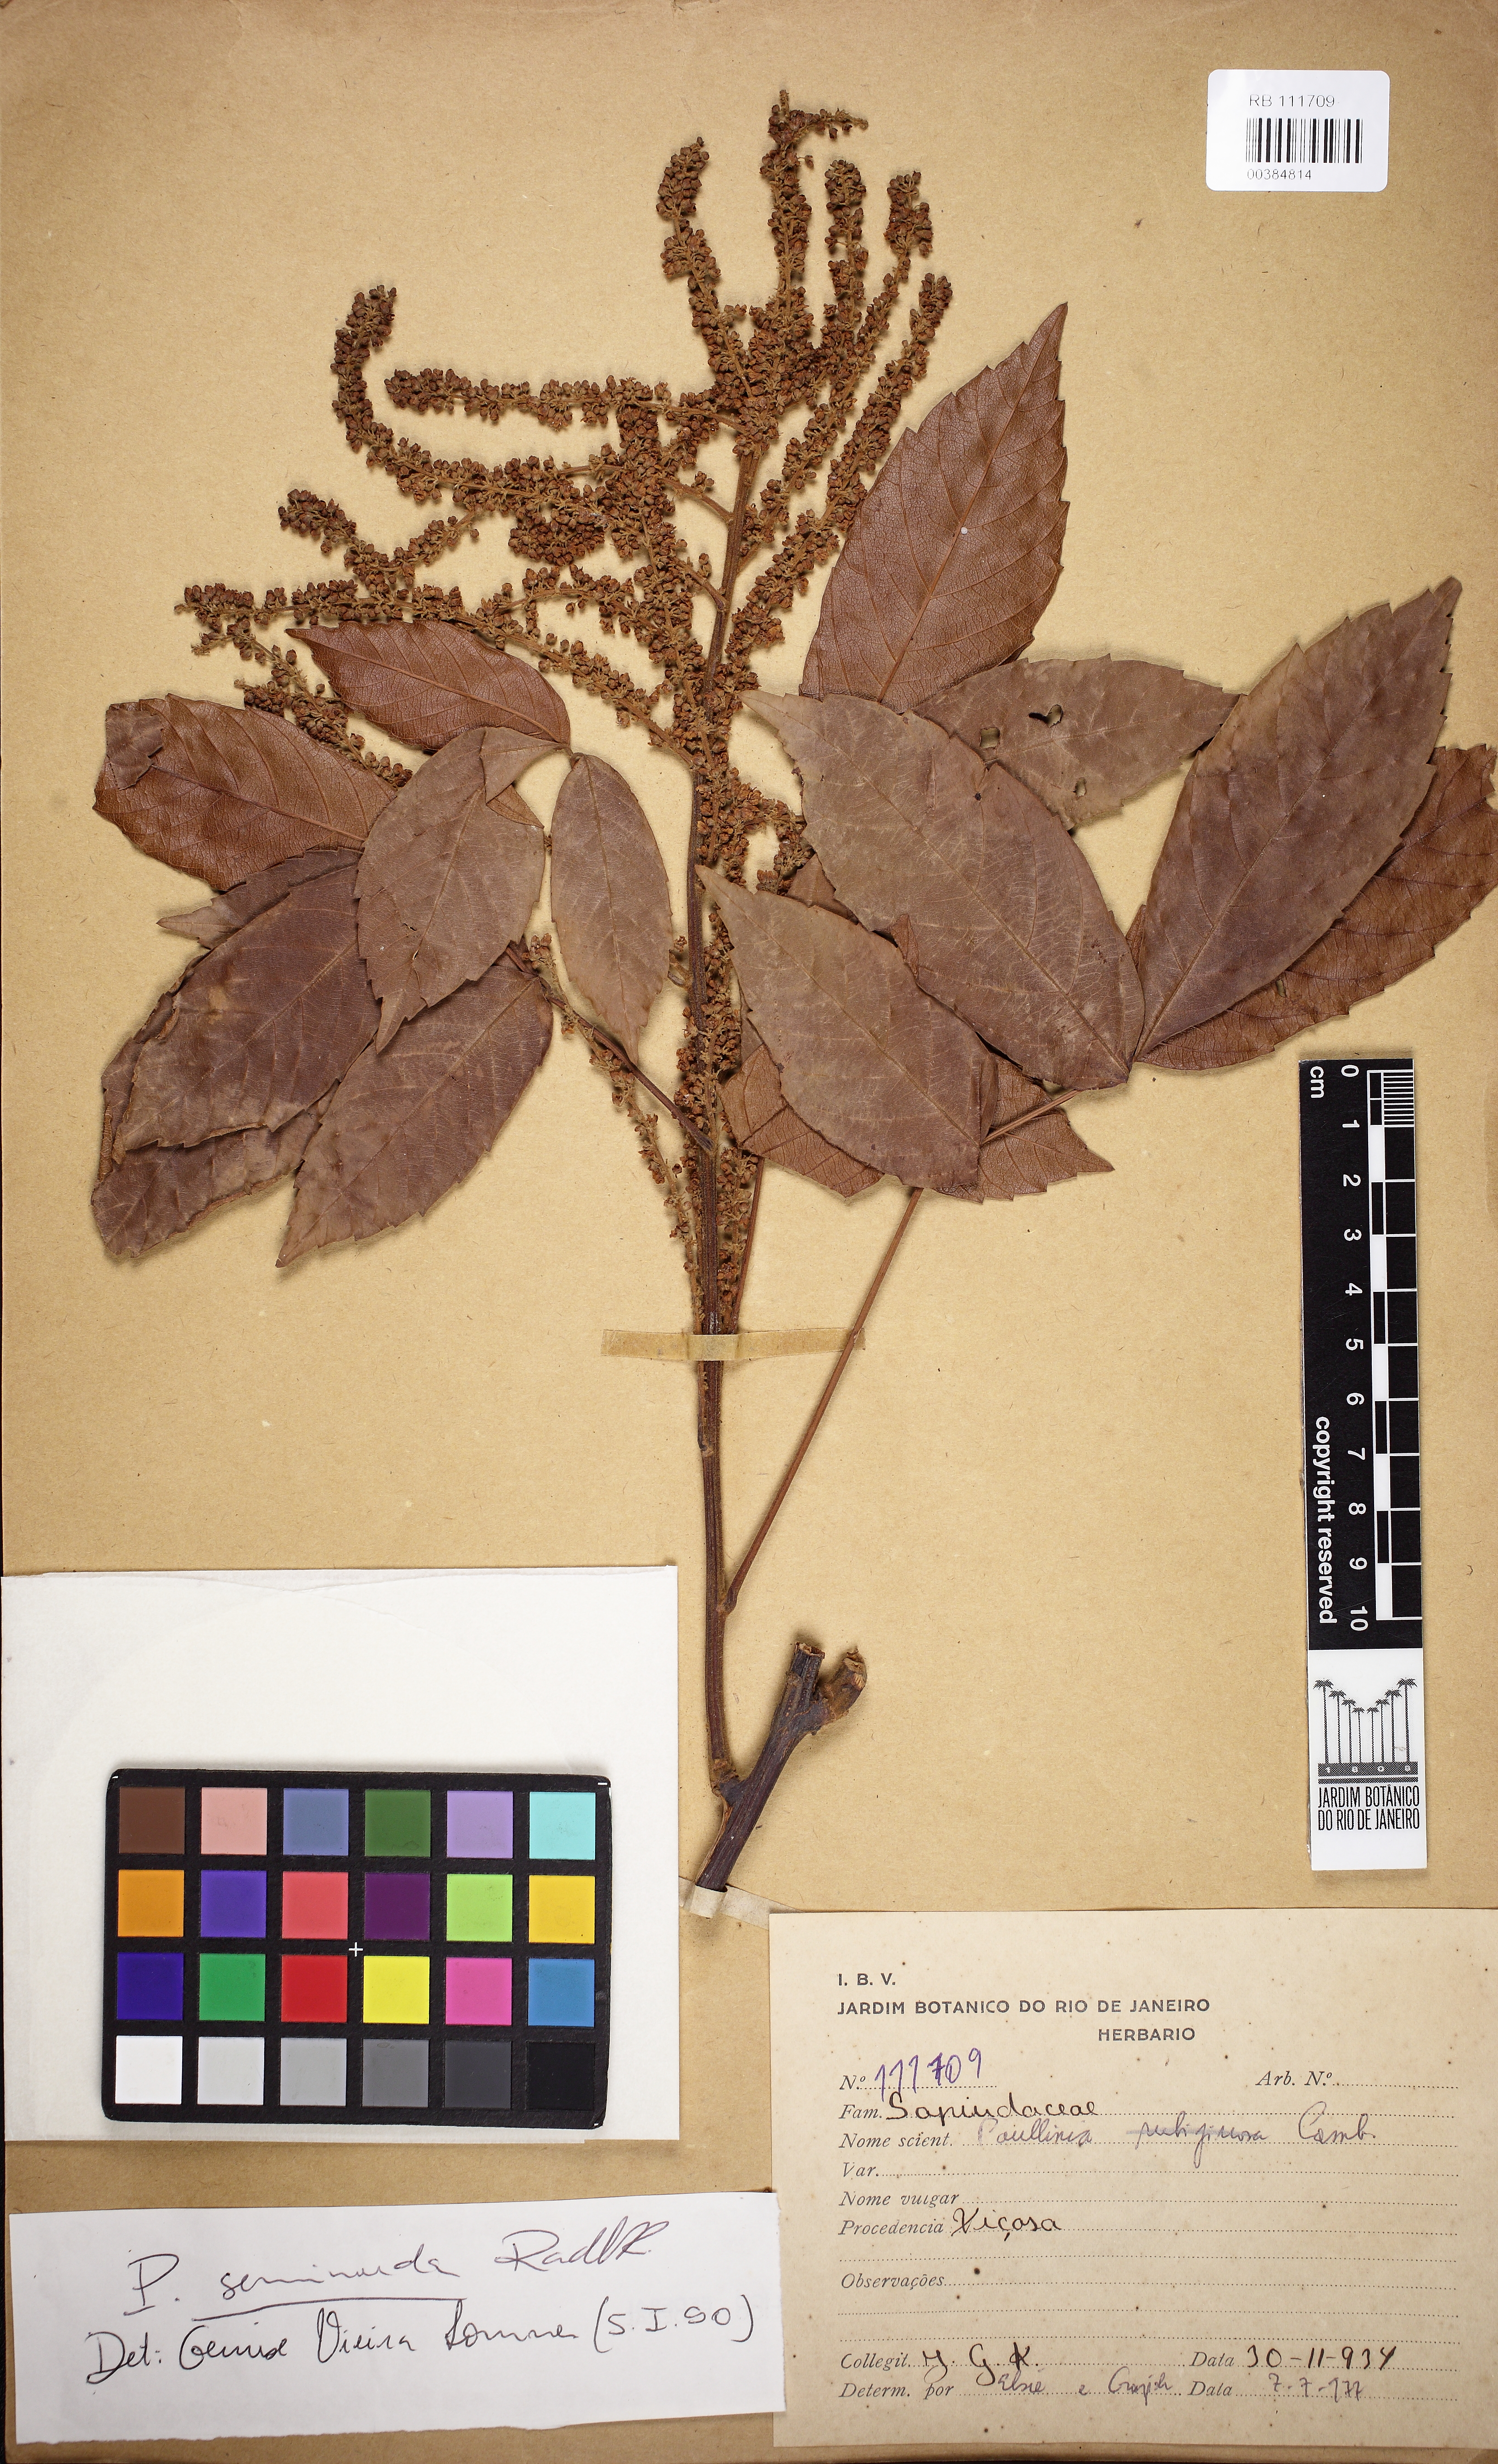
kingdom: Plantae
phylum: Tracheophyta
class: Magnoliopsida
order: Sapindales
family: Sapindaceae
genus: Paullinia
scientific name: Paullinia seminuda
